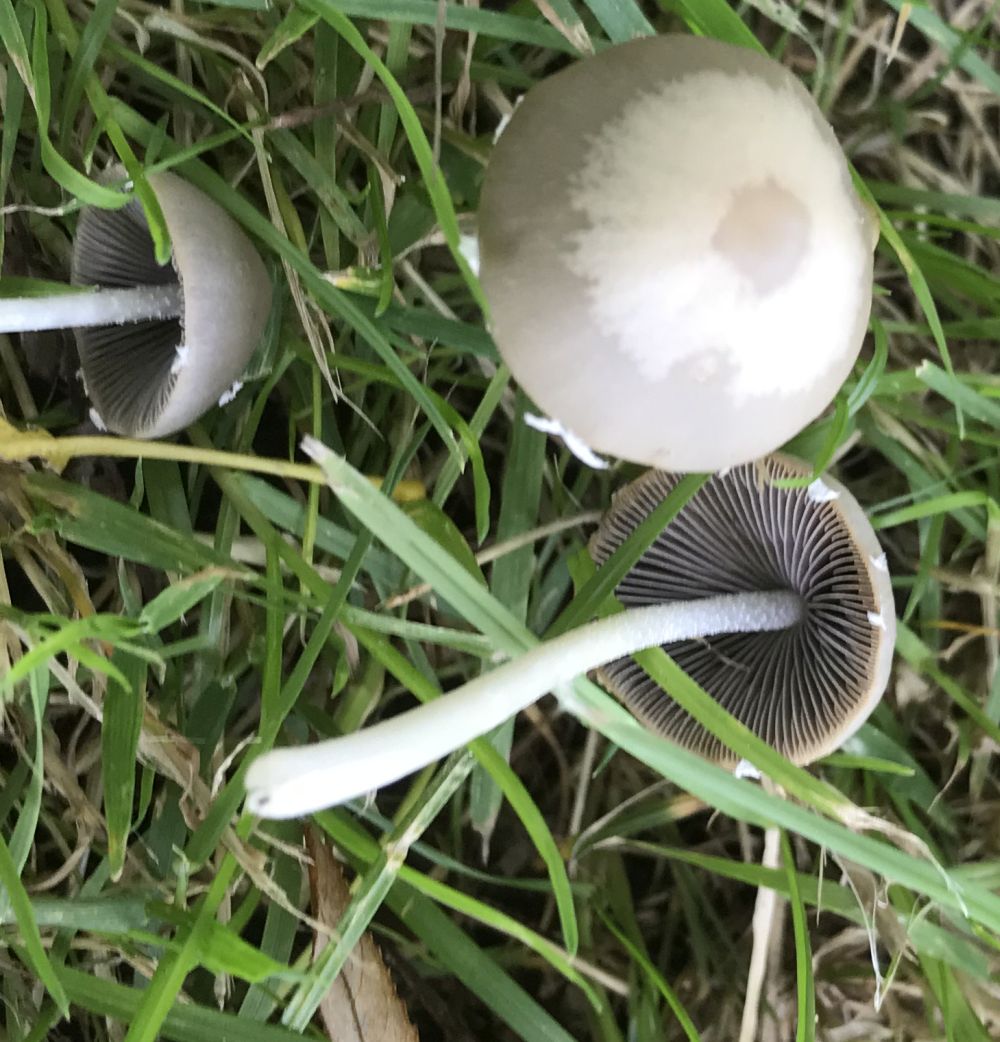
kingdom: Fungi
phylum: Basidiomycota
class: Agaricomycetes
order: Agaricales
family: Psathyrellaceae
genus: Psathyrella
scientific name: Psathyrella
